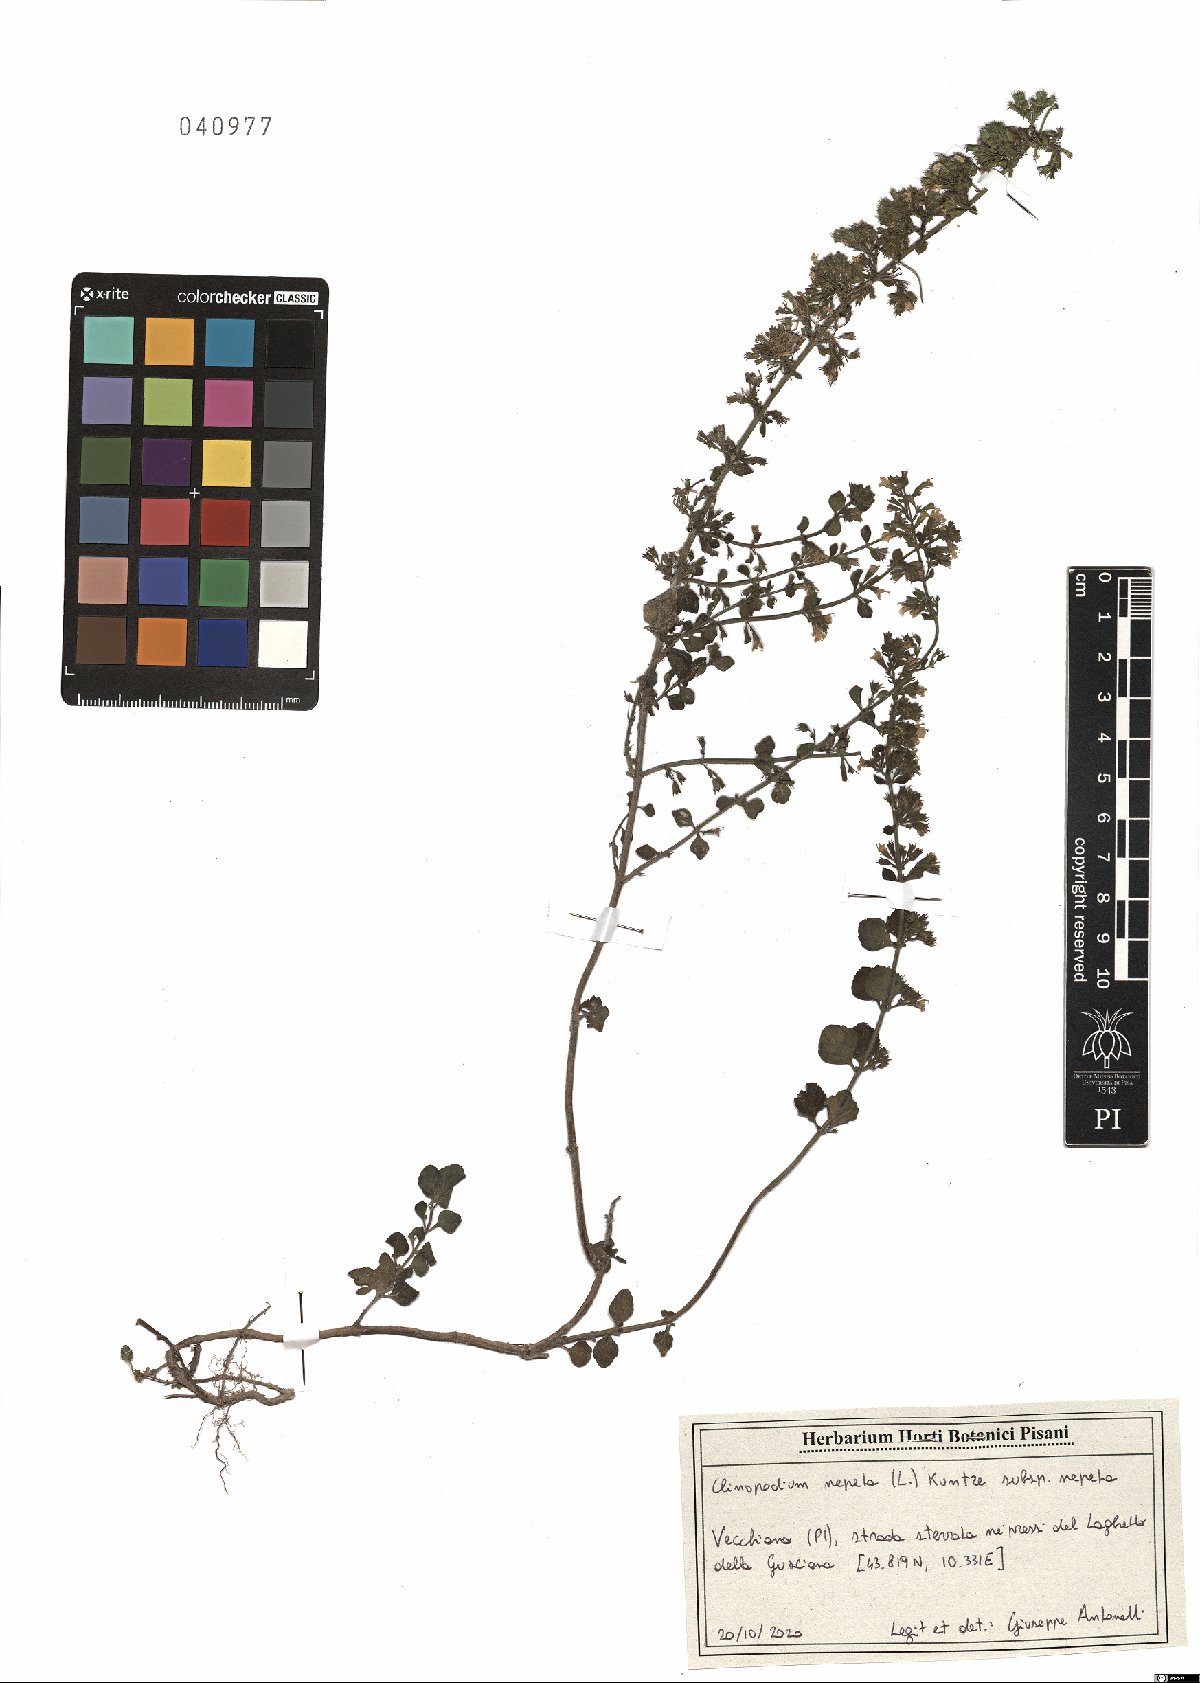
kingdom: Plantae
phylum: Tracheophyta
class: Magnoliopsida
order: Lamiales
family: Lamiaceae
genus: Clinopodium
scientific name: Clinopodium nepeta
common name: Lesser calamint
